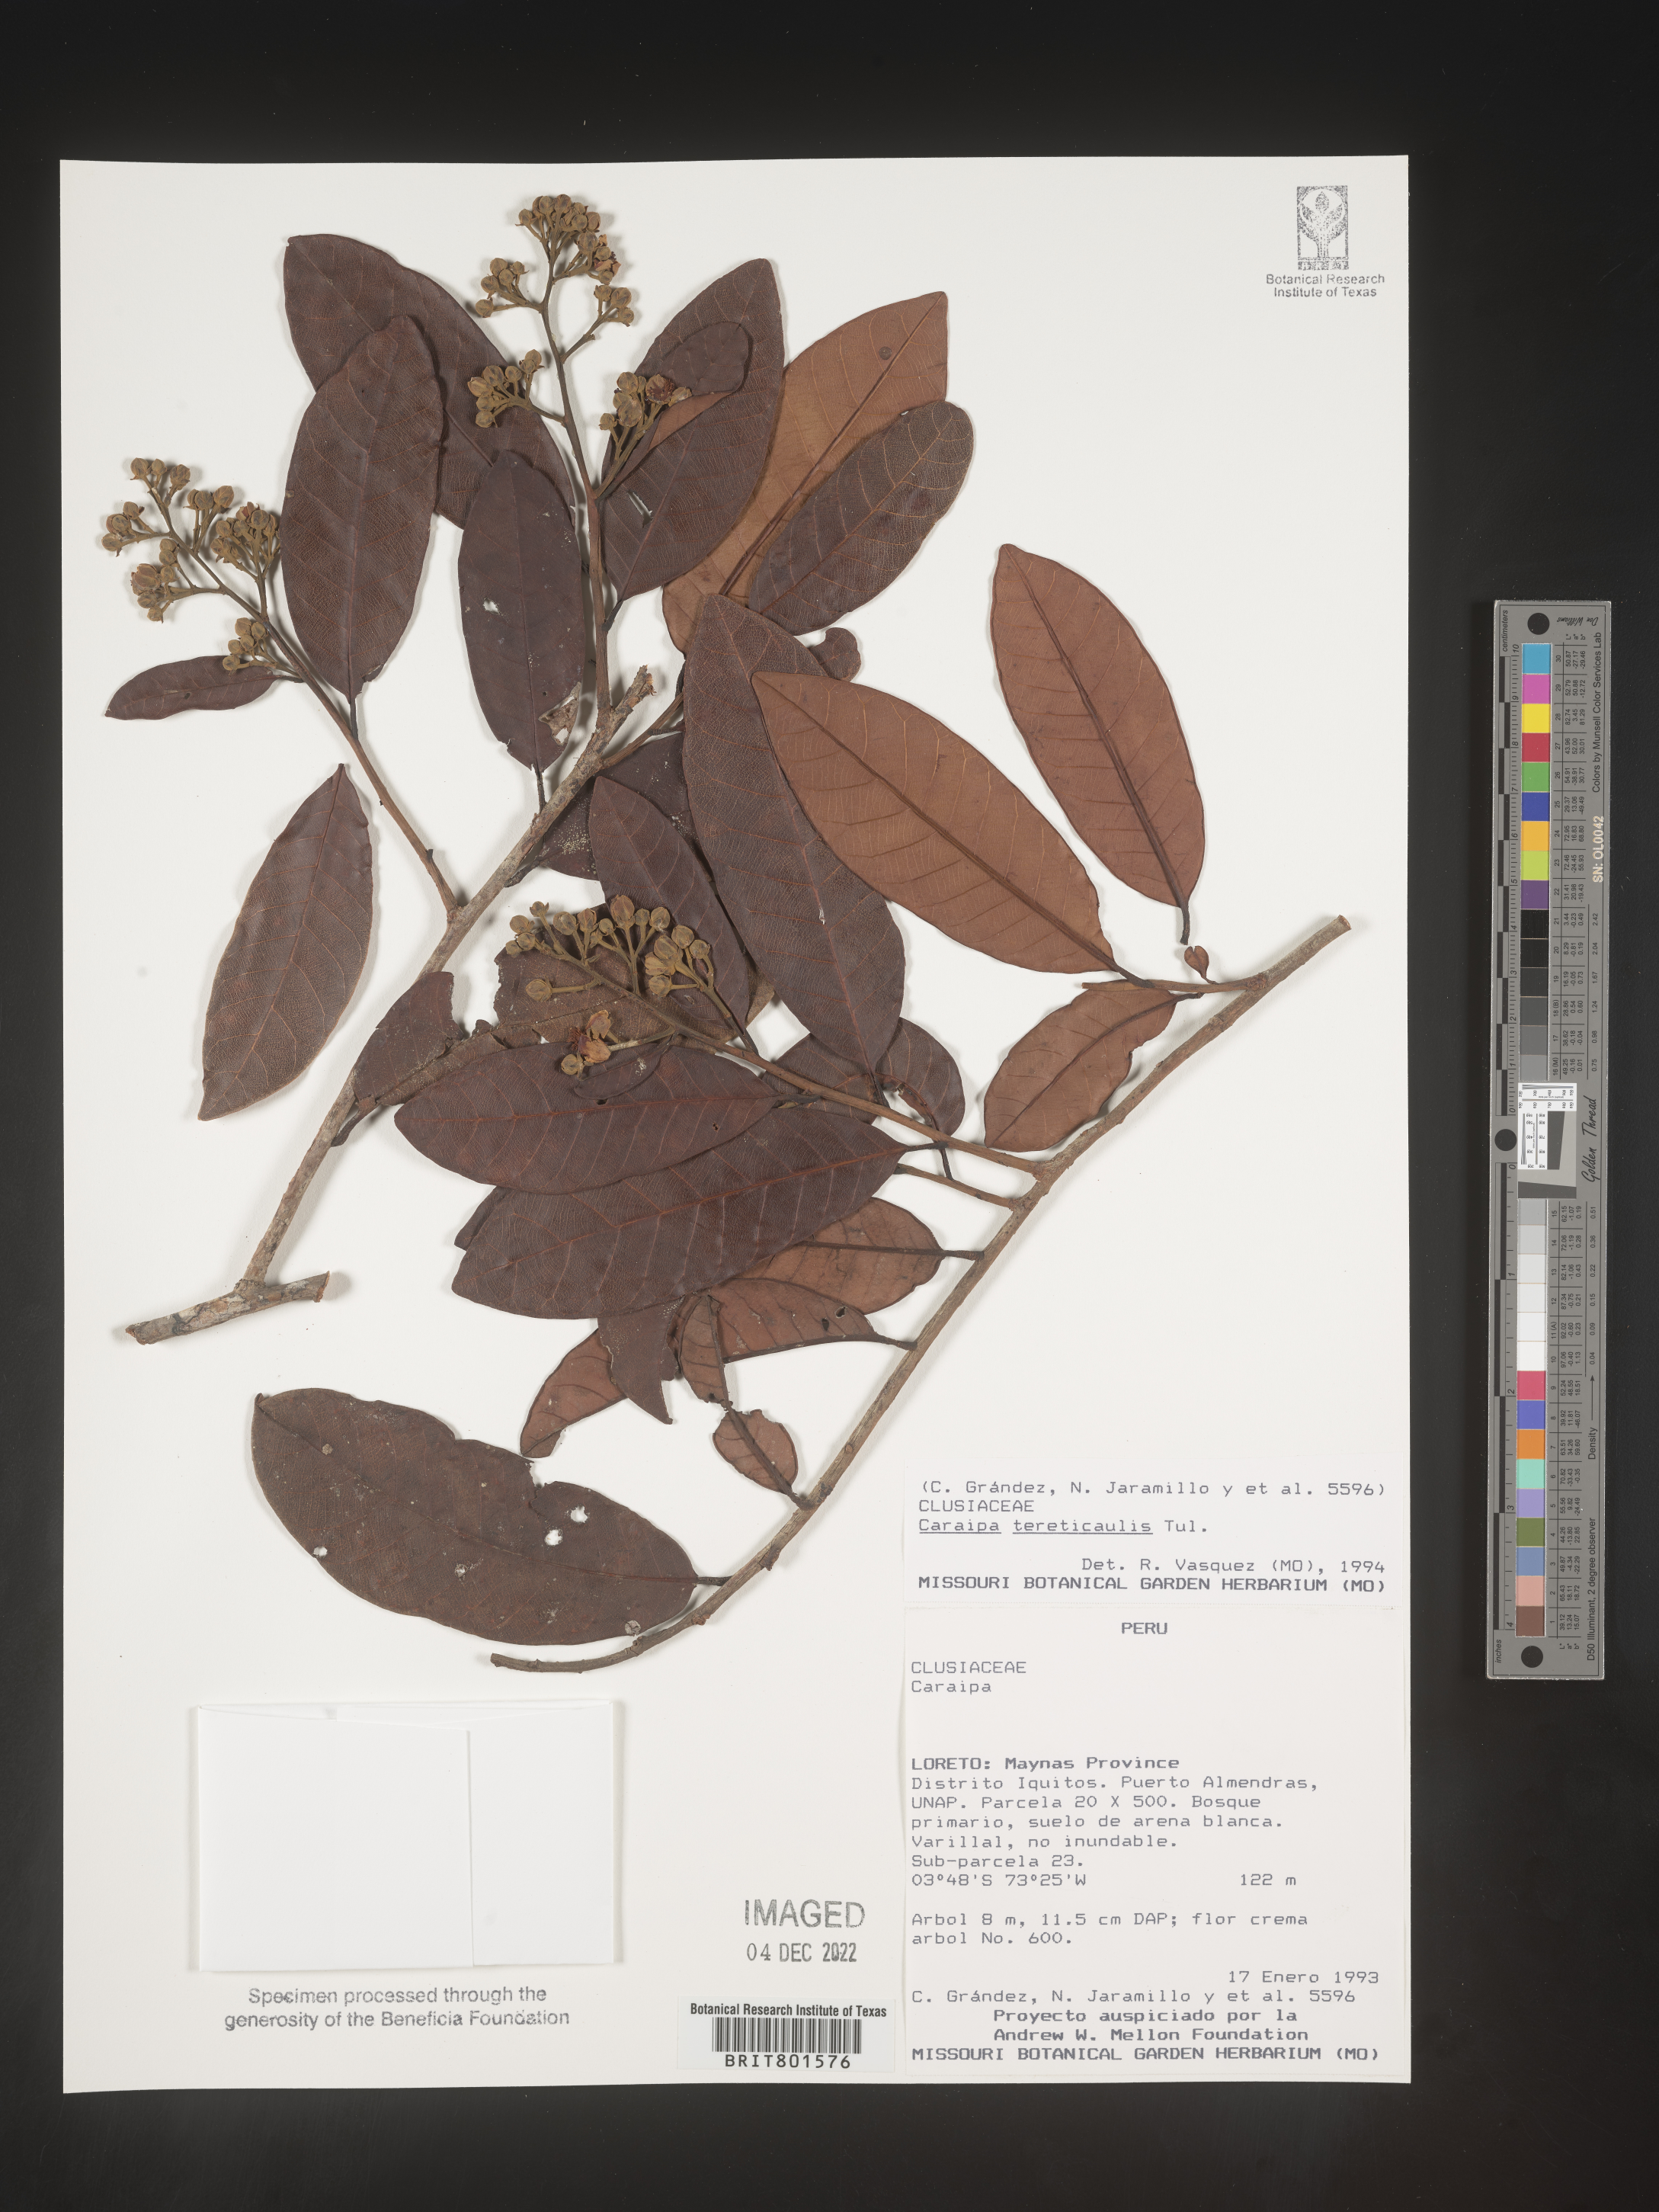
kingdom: Plantae
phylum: Tracheophyta
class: Magnoliopsida
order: Malpighiales
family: Calophyllaceae
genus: Caraipa
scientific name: Caraipa
